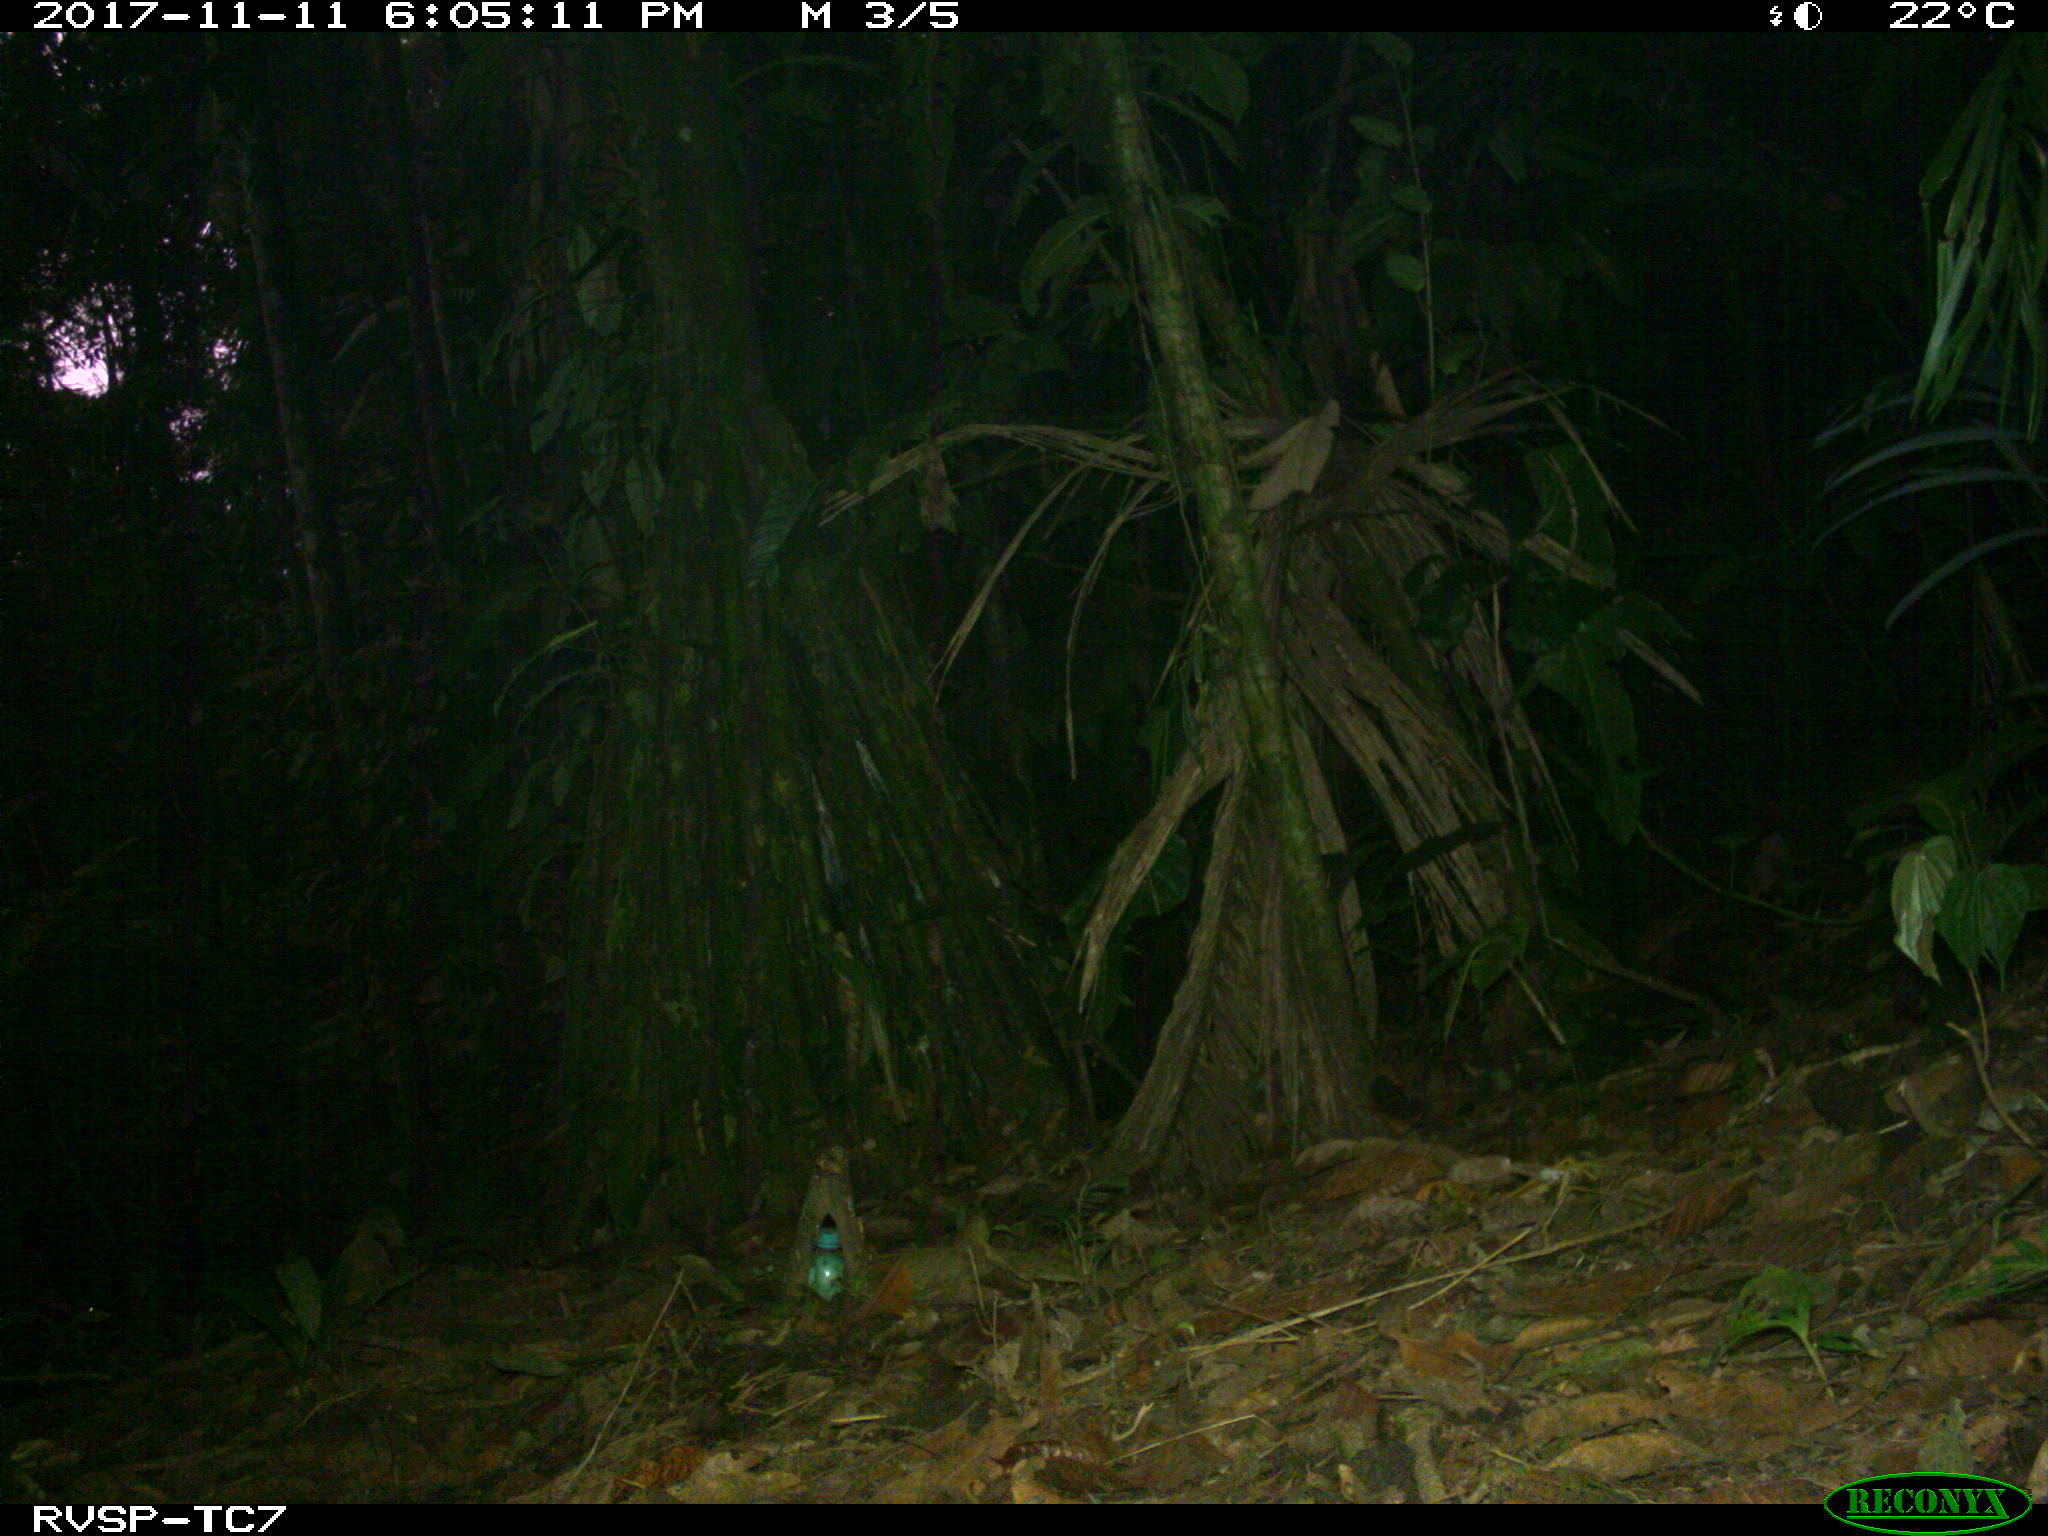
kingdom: Animalia
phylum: Chordata
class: Mammalia
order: Artiodactyla
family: Tayassuidae
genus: Tayassu
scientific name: Tayassu pecari
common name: White-lipped peccary
